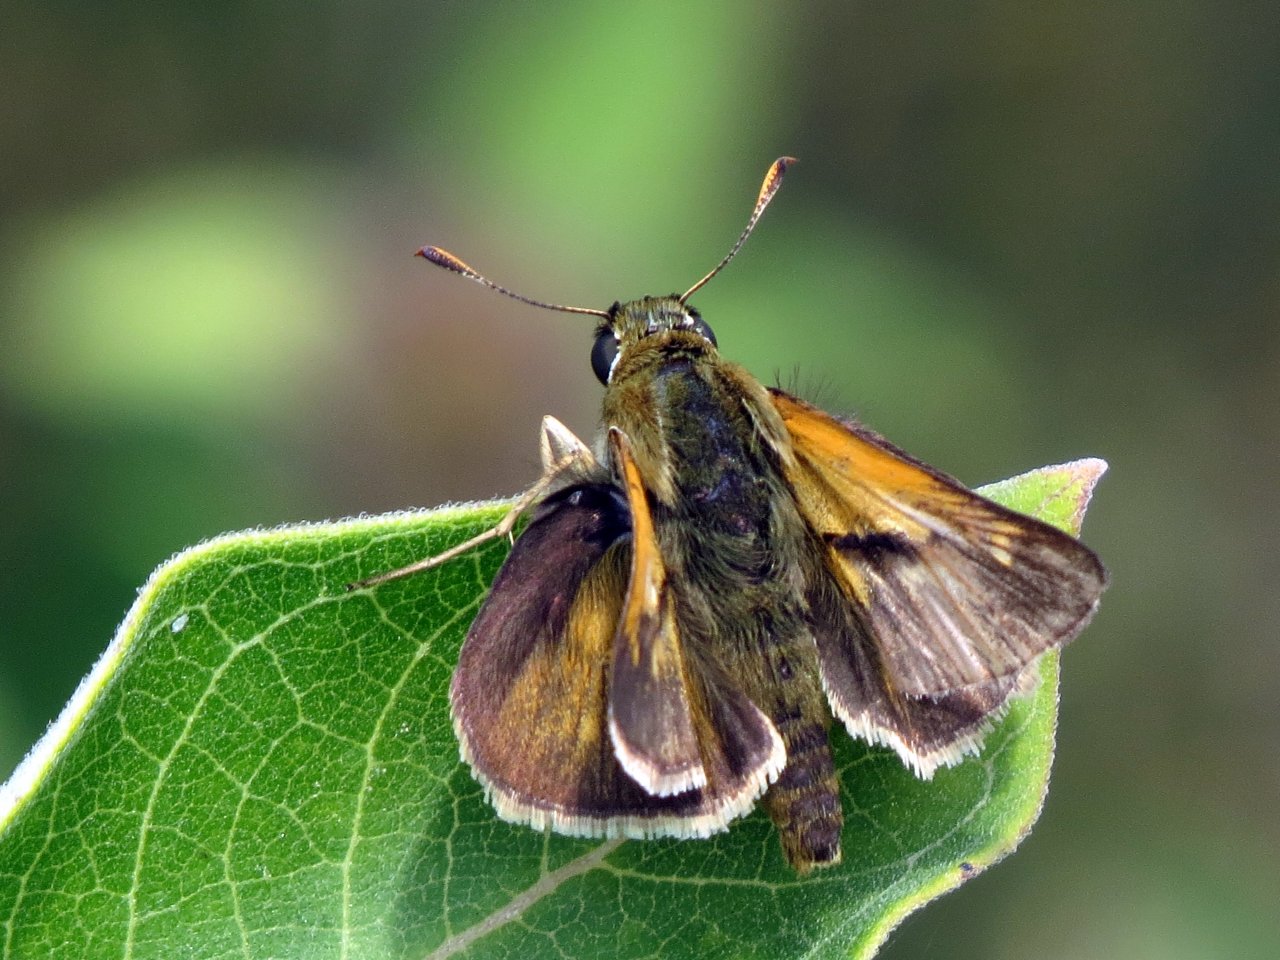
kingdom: Animalia
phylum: Arthropoda
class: Insecta
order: Lepidoptera
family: Hesperiidae
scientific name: Hesperiidae
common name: Skippers
